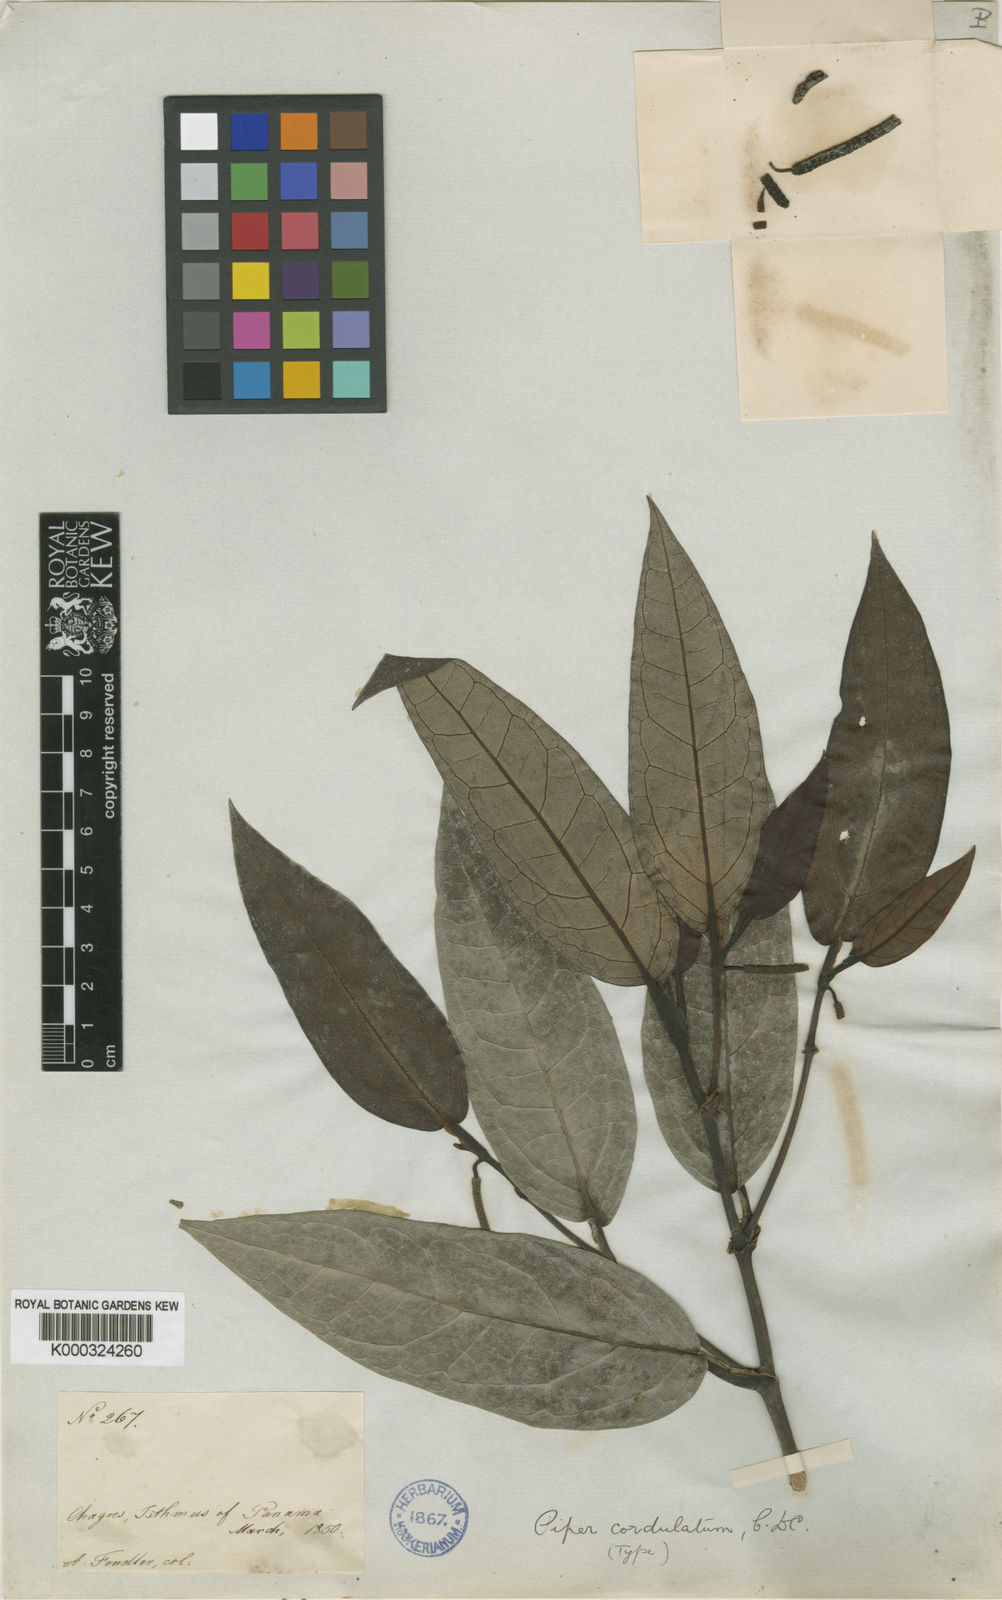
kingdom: Plantae
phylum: Tracheophyta
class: Magnoliopsida
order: Piperales
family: Piperaceae
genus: Piper
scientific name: Piper trinervium
